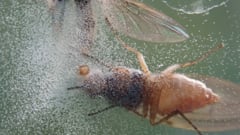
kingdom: Animalia
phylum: Arthropoda
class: Insecta
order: Diptera
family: Heleomyzidae
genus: Tephrochlamys
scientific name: Tephrochlamys flavipes
